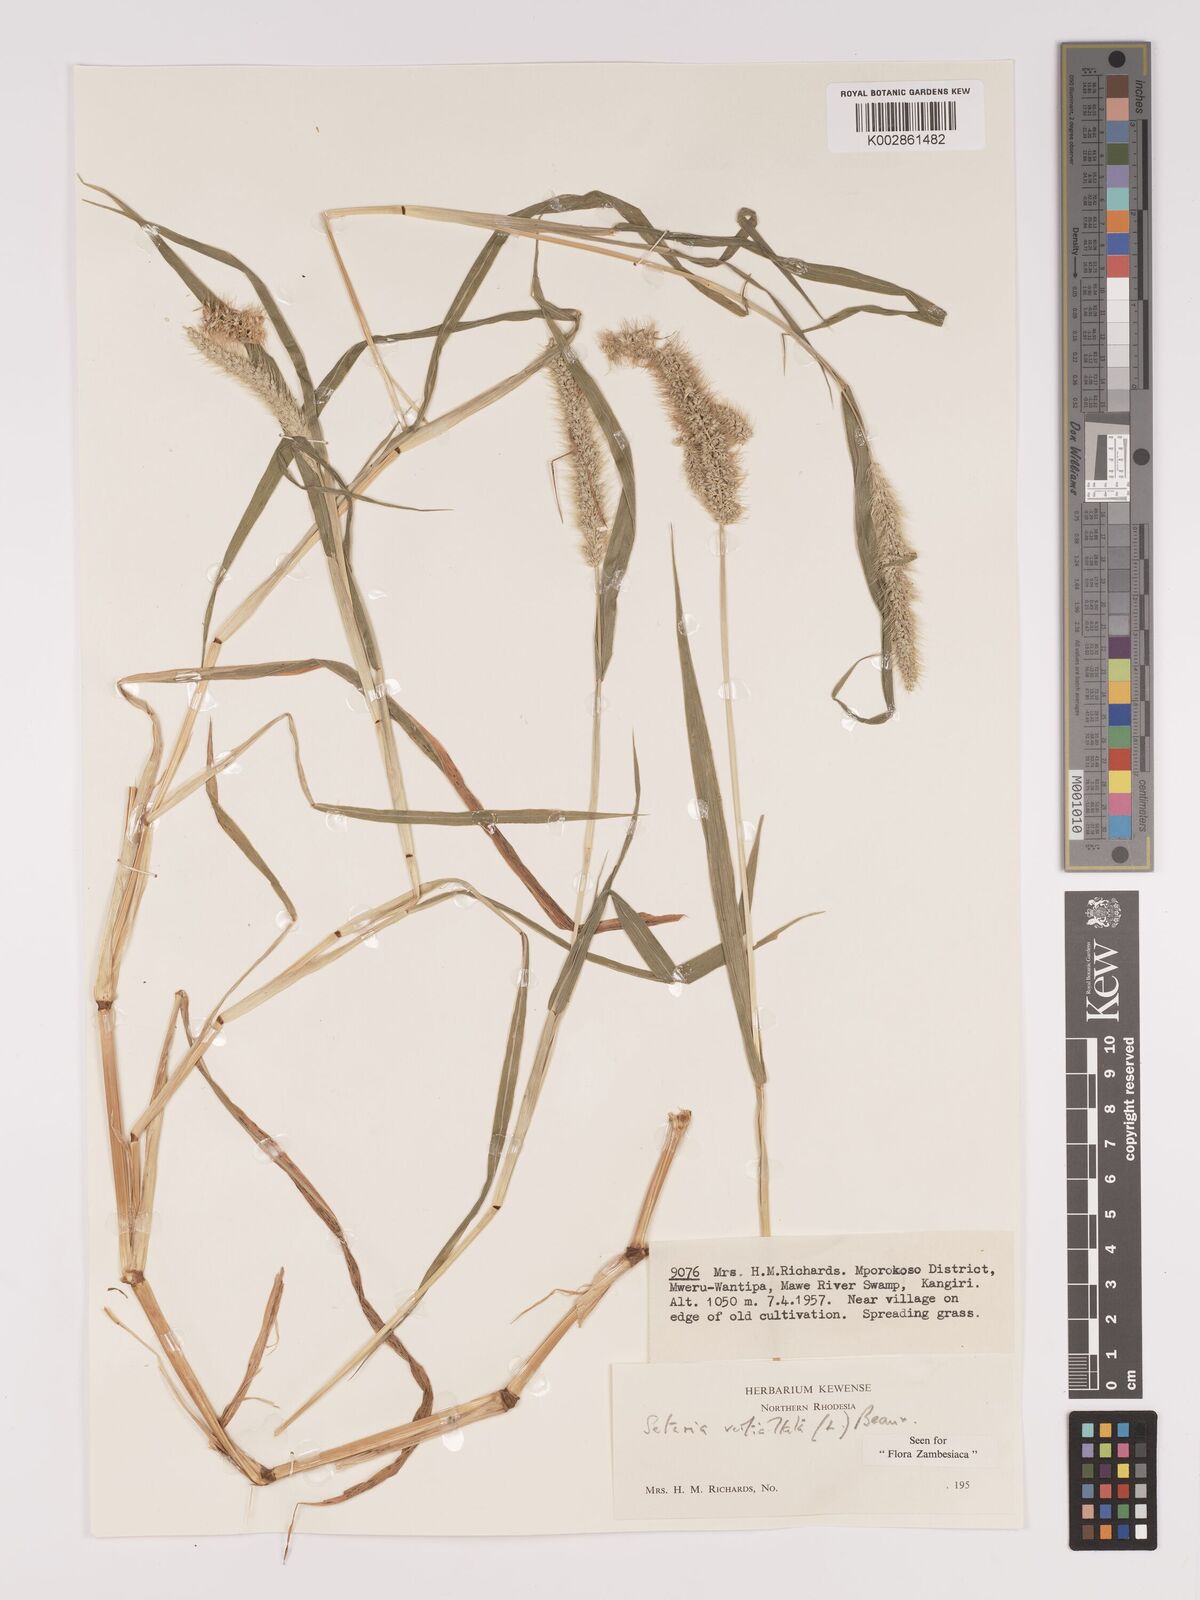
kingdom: Plantae
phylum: Tracheophyta
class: Liliopsida
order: Poales
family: Poaceae
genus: Setaria
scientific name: Setaria verticillata
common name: Hooked bristlegrass
